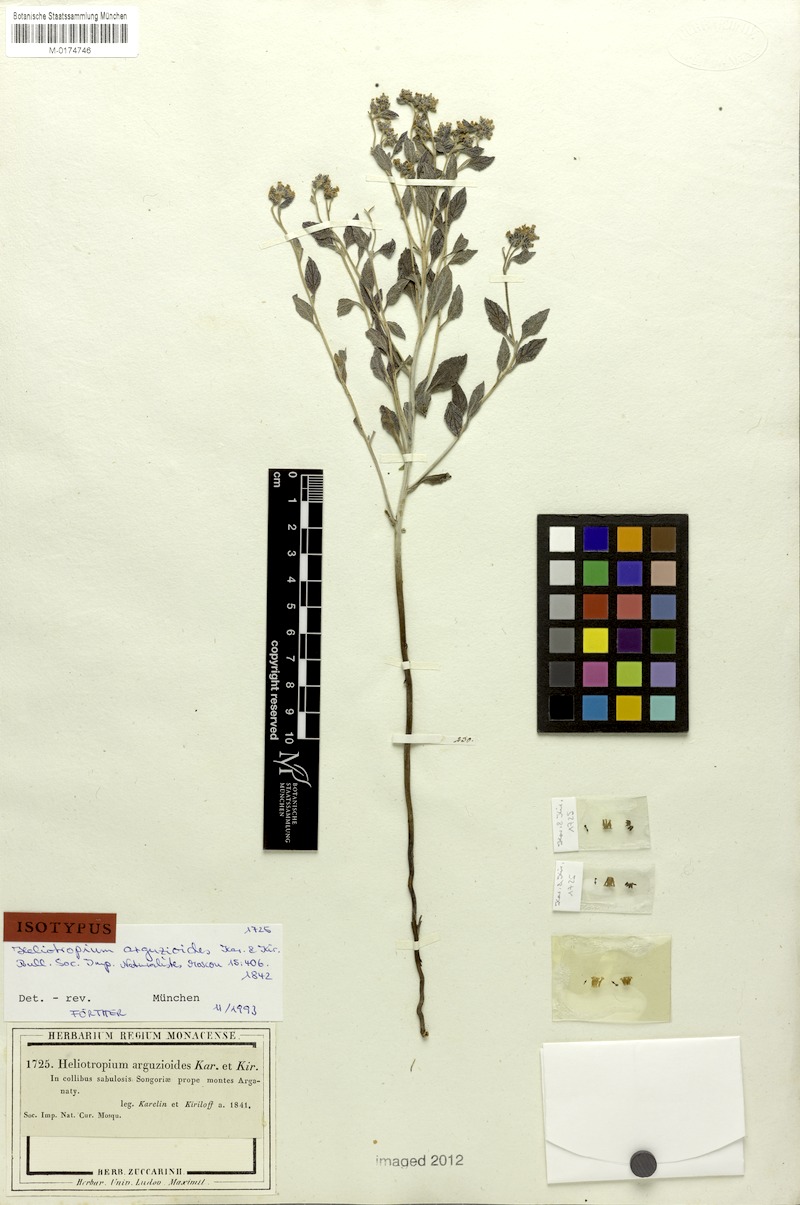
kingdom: Plantae
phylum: Tracheophyta
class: Magnoliopsida
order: Boraginales
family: Heliotropiaceae
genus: Heliotropium
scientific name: Heliotropium arguzioides
